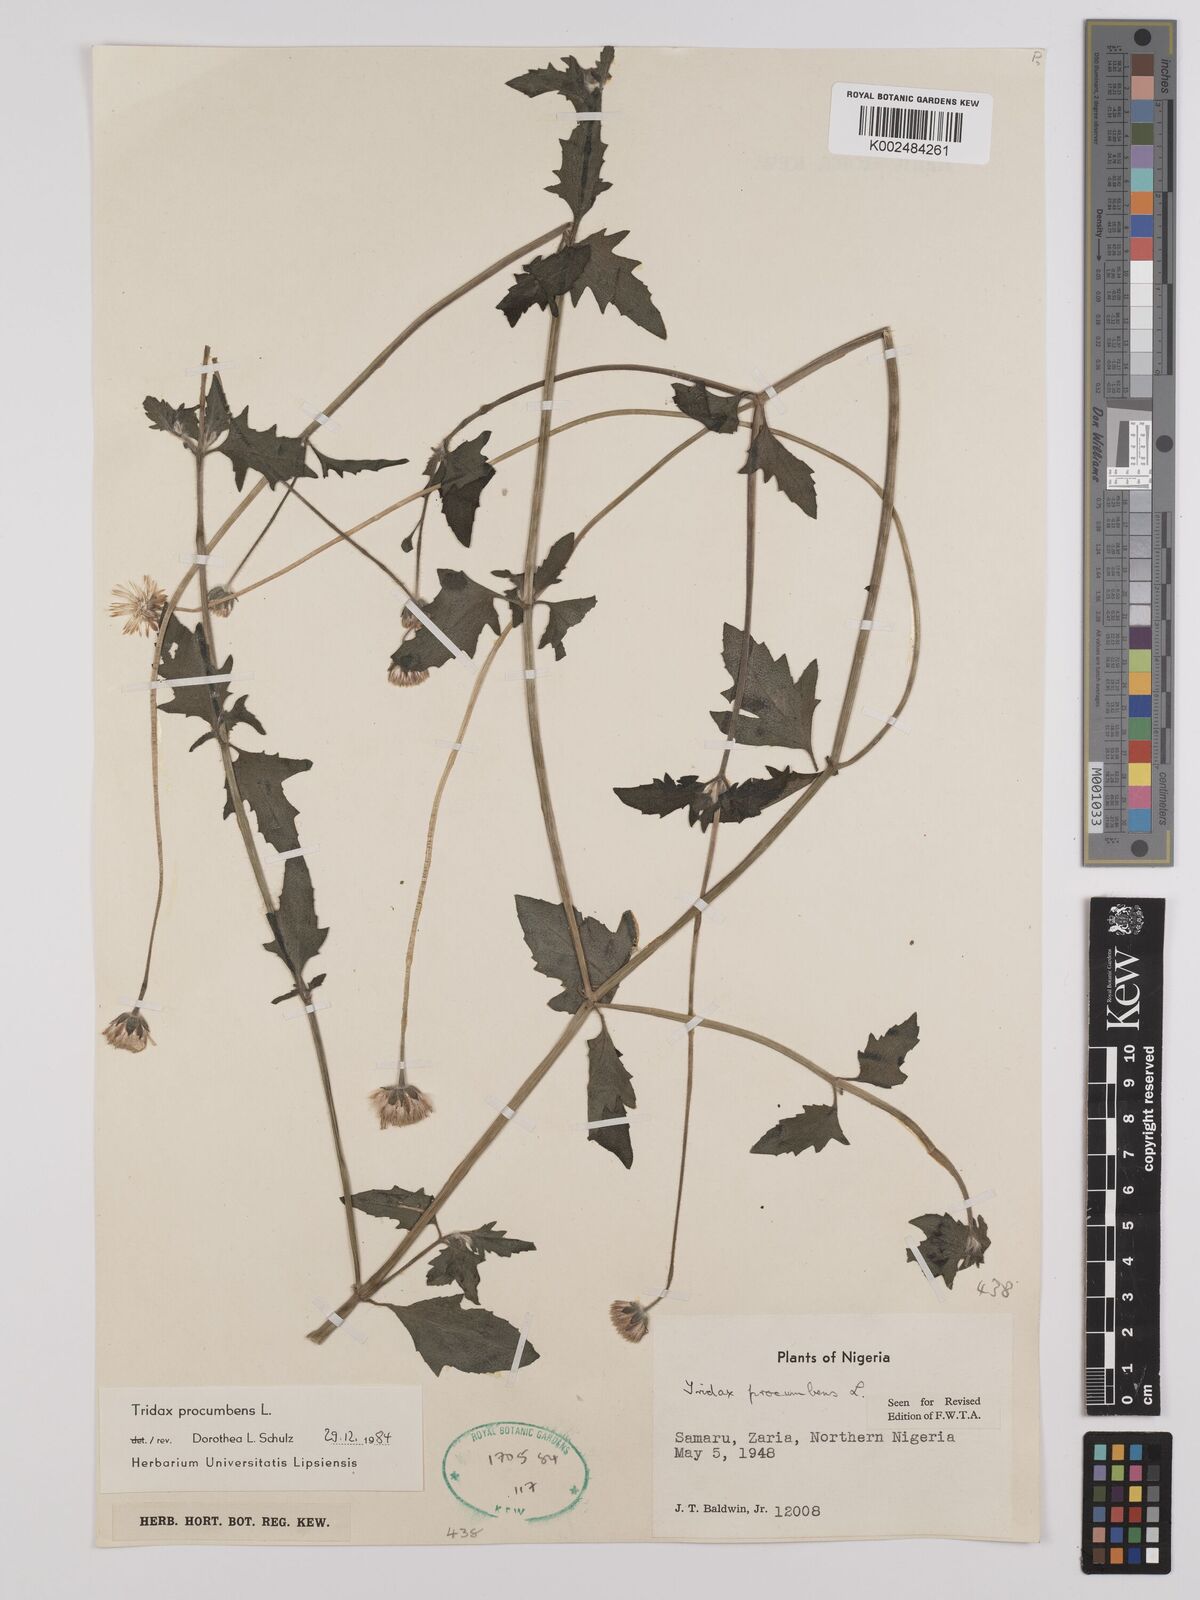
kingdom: Plantae
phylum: Tracheophyta
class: Magnoliopsida
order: Asterales
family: Asteraceae
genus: Tridax
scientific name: Tridax procumbens
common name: Coatbuttons
